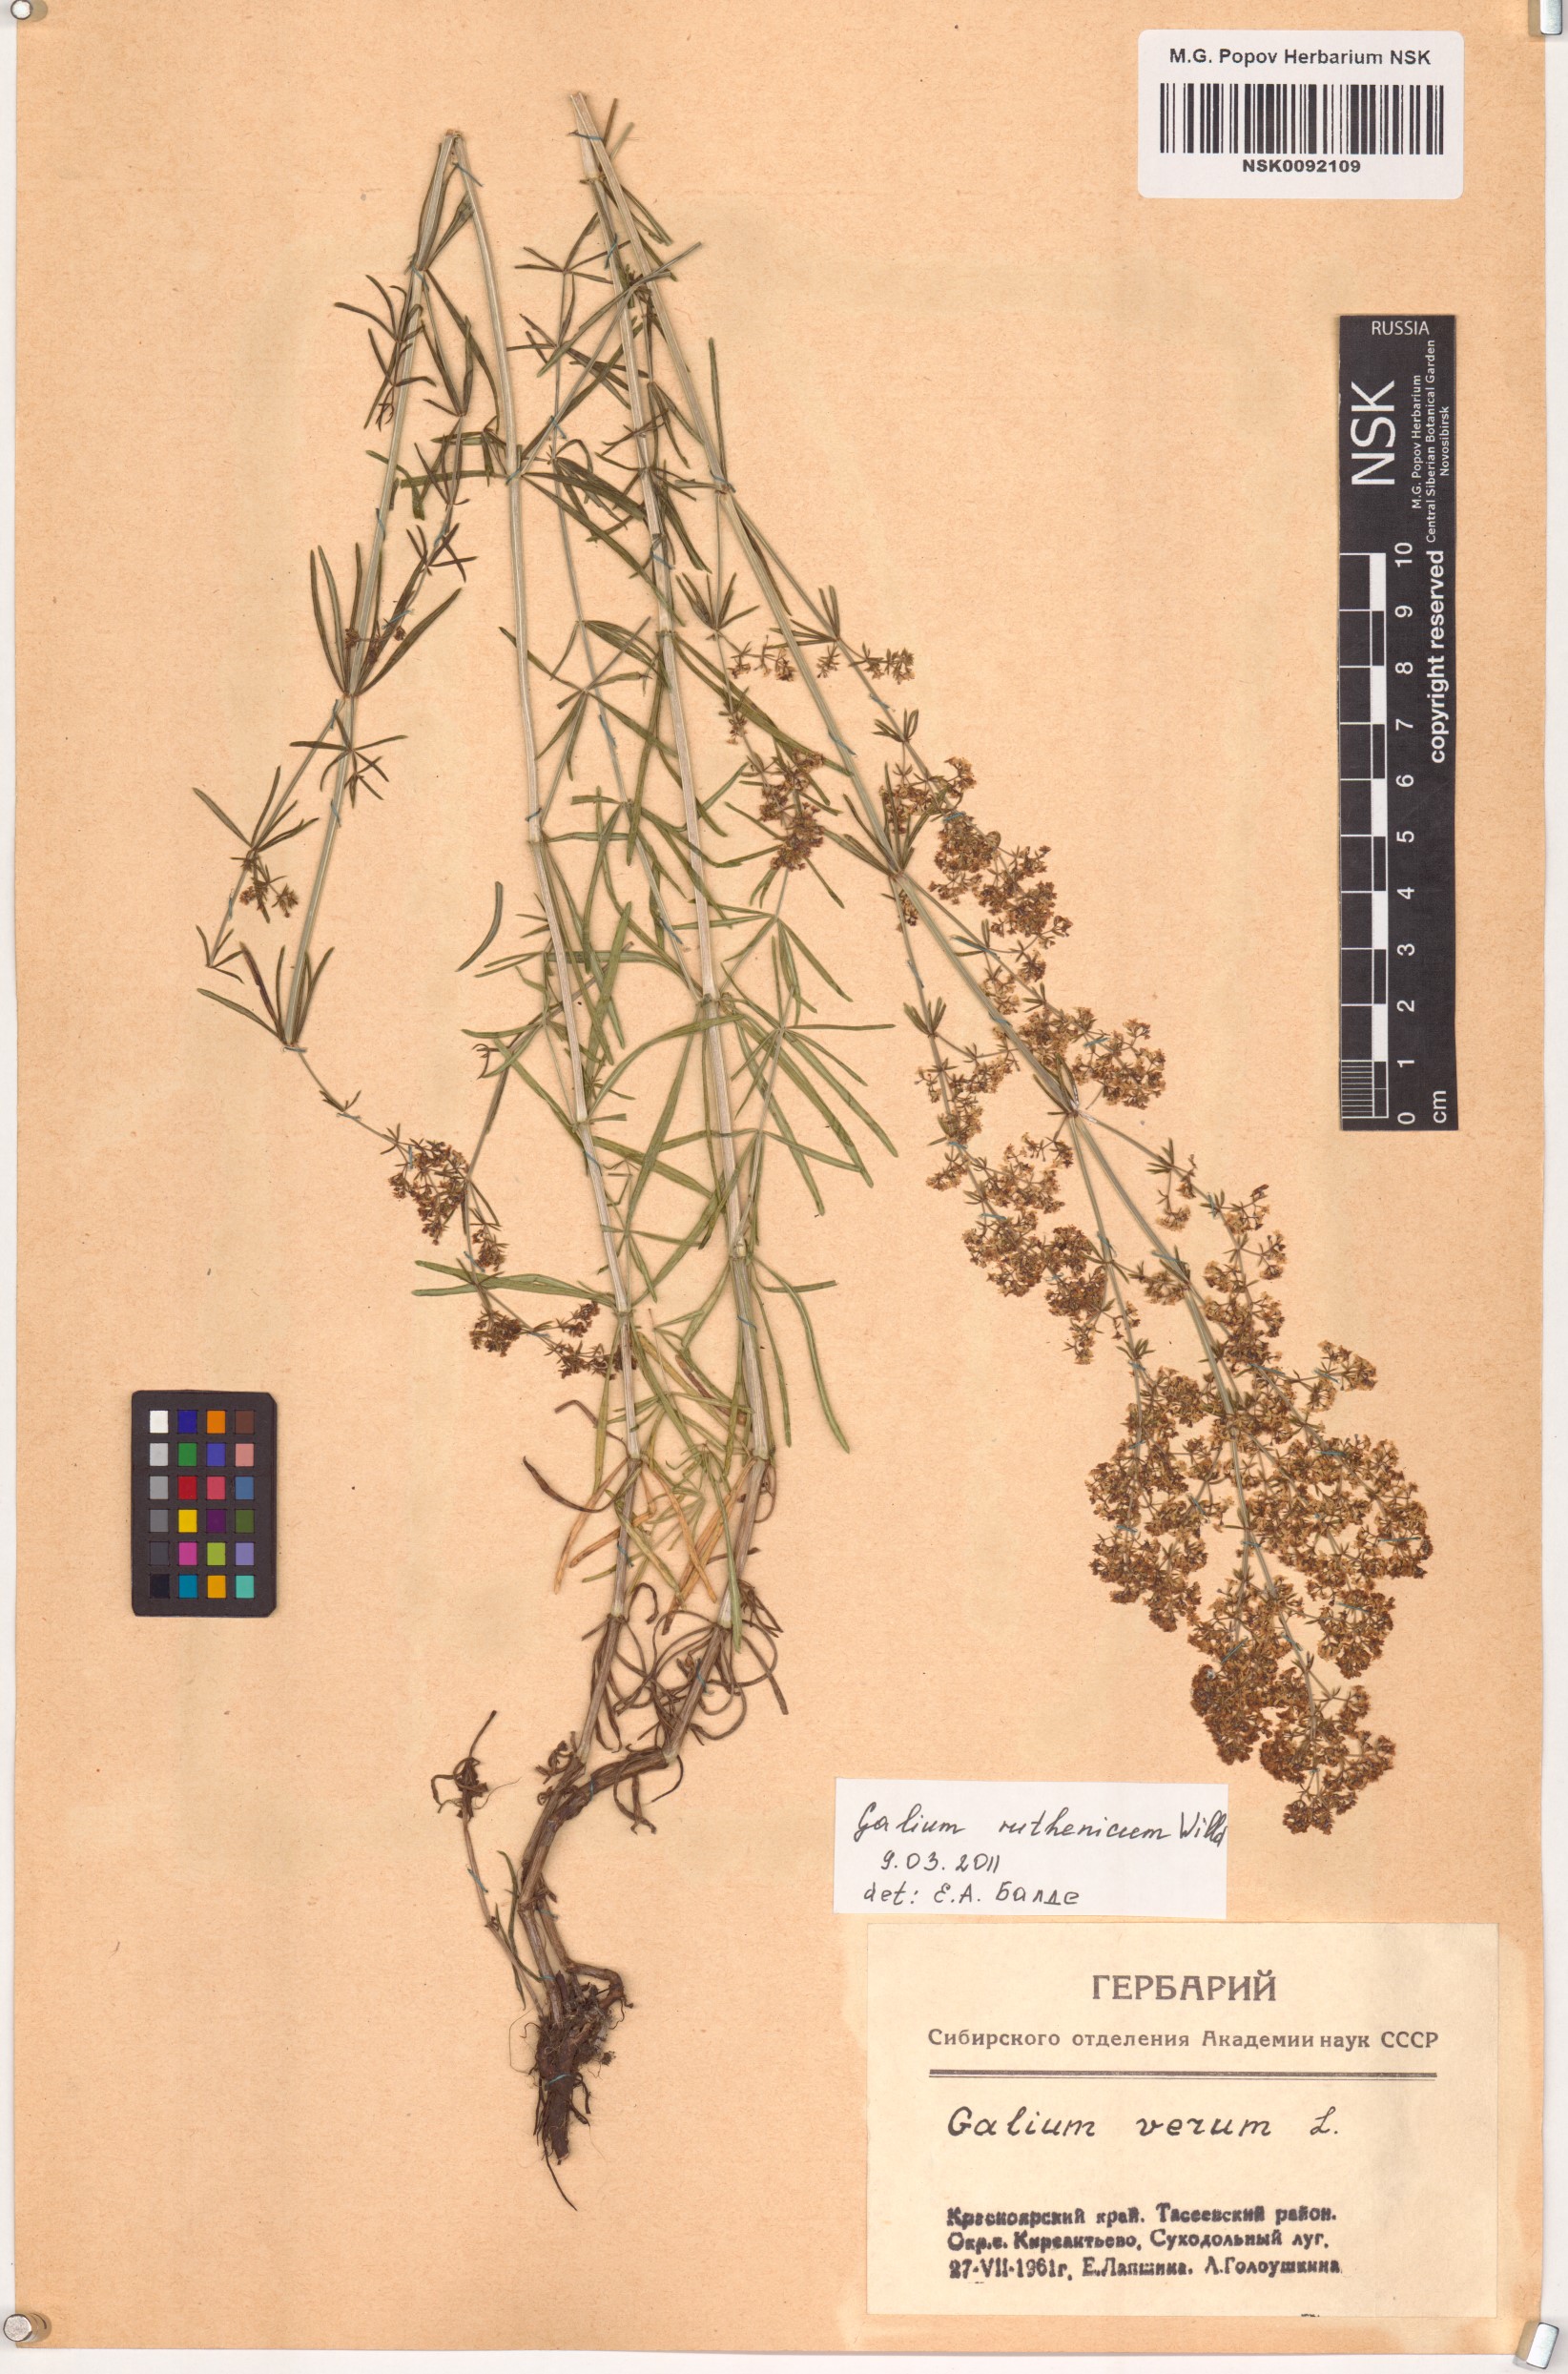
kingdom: Plantae
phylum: Tracheophyta
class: Magnoliopsida
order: Gentianales
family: Rubiaceae
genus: Galium
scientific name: Galium verum
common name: Lady's bedstraw
